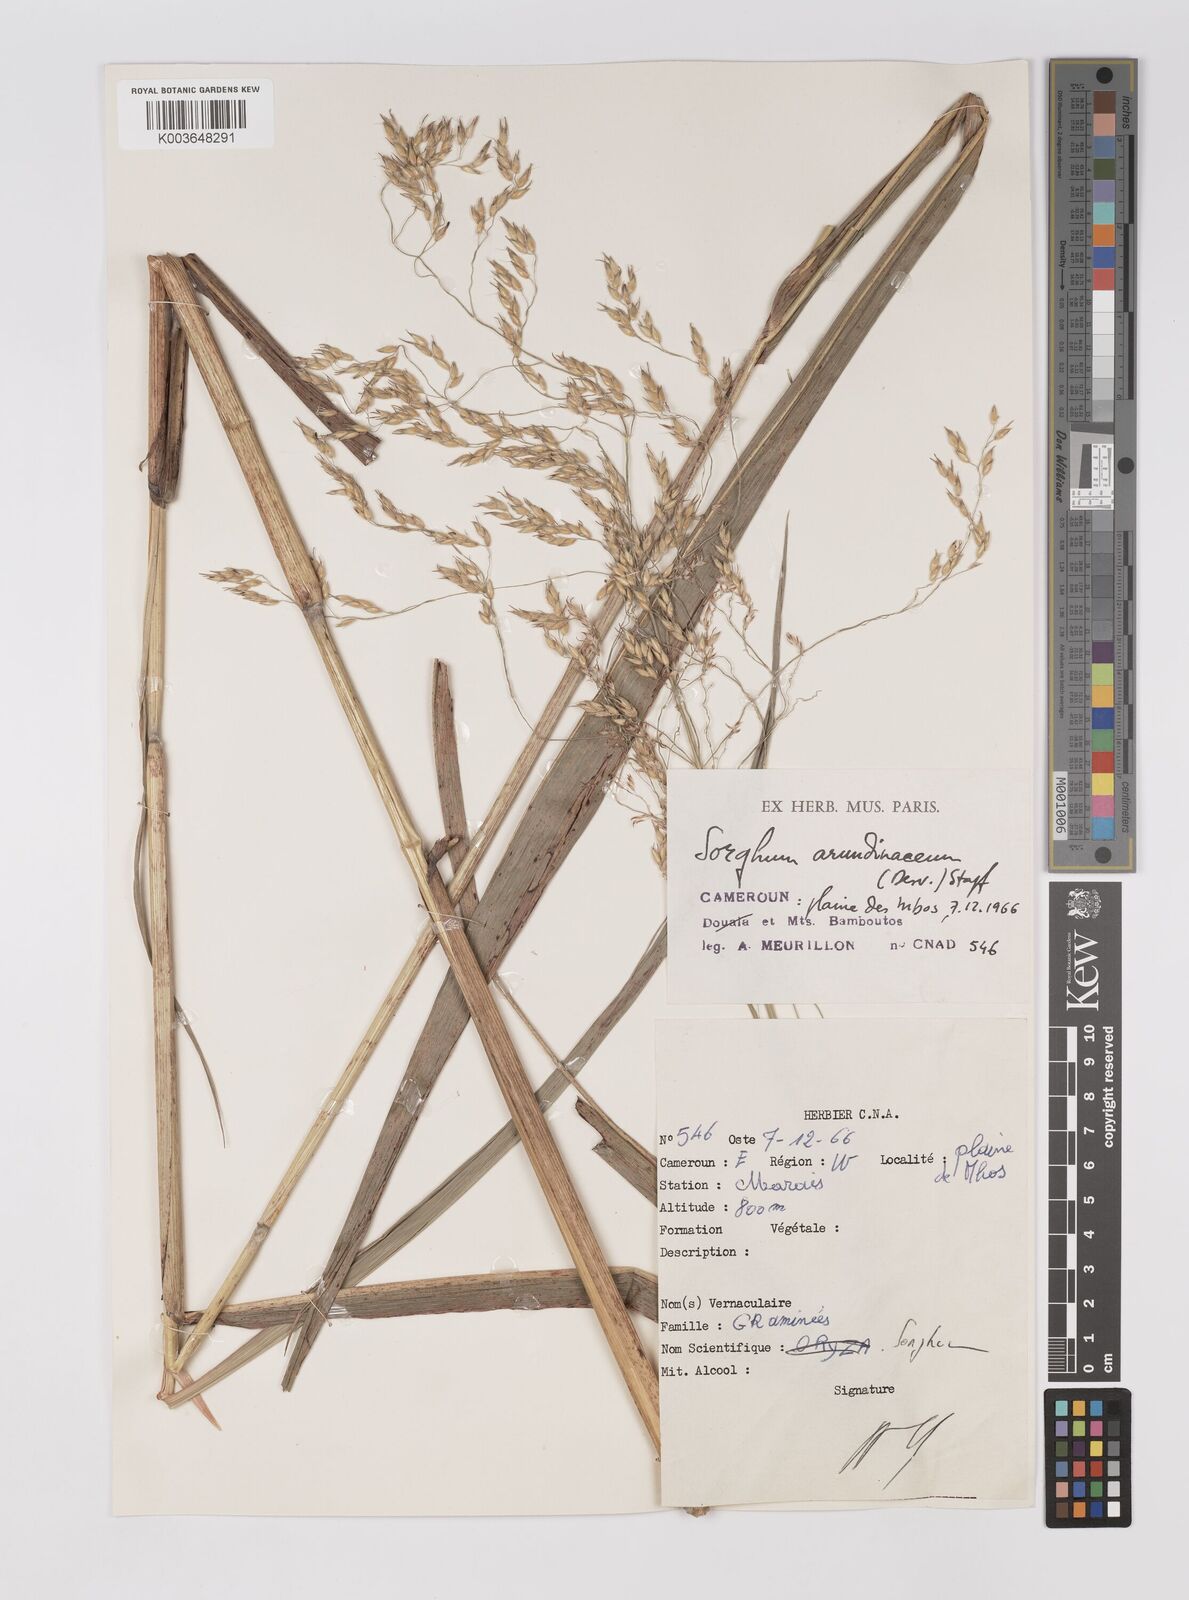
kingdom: Plantae
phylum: Tracheophyta
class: Liliopsida
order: Poales
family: Poaceae
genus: Sorghum
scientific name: Sorghum arundinaceum
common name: Sorghum
